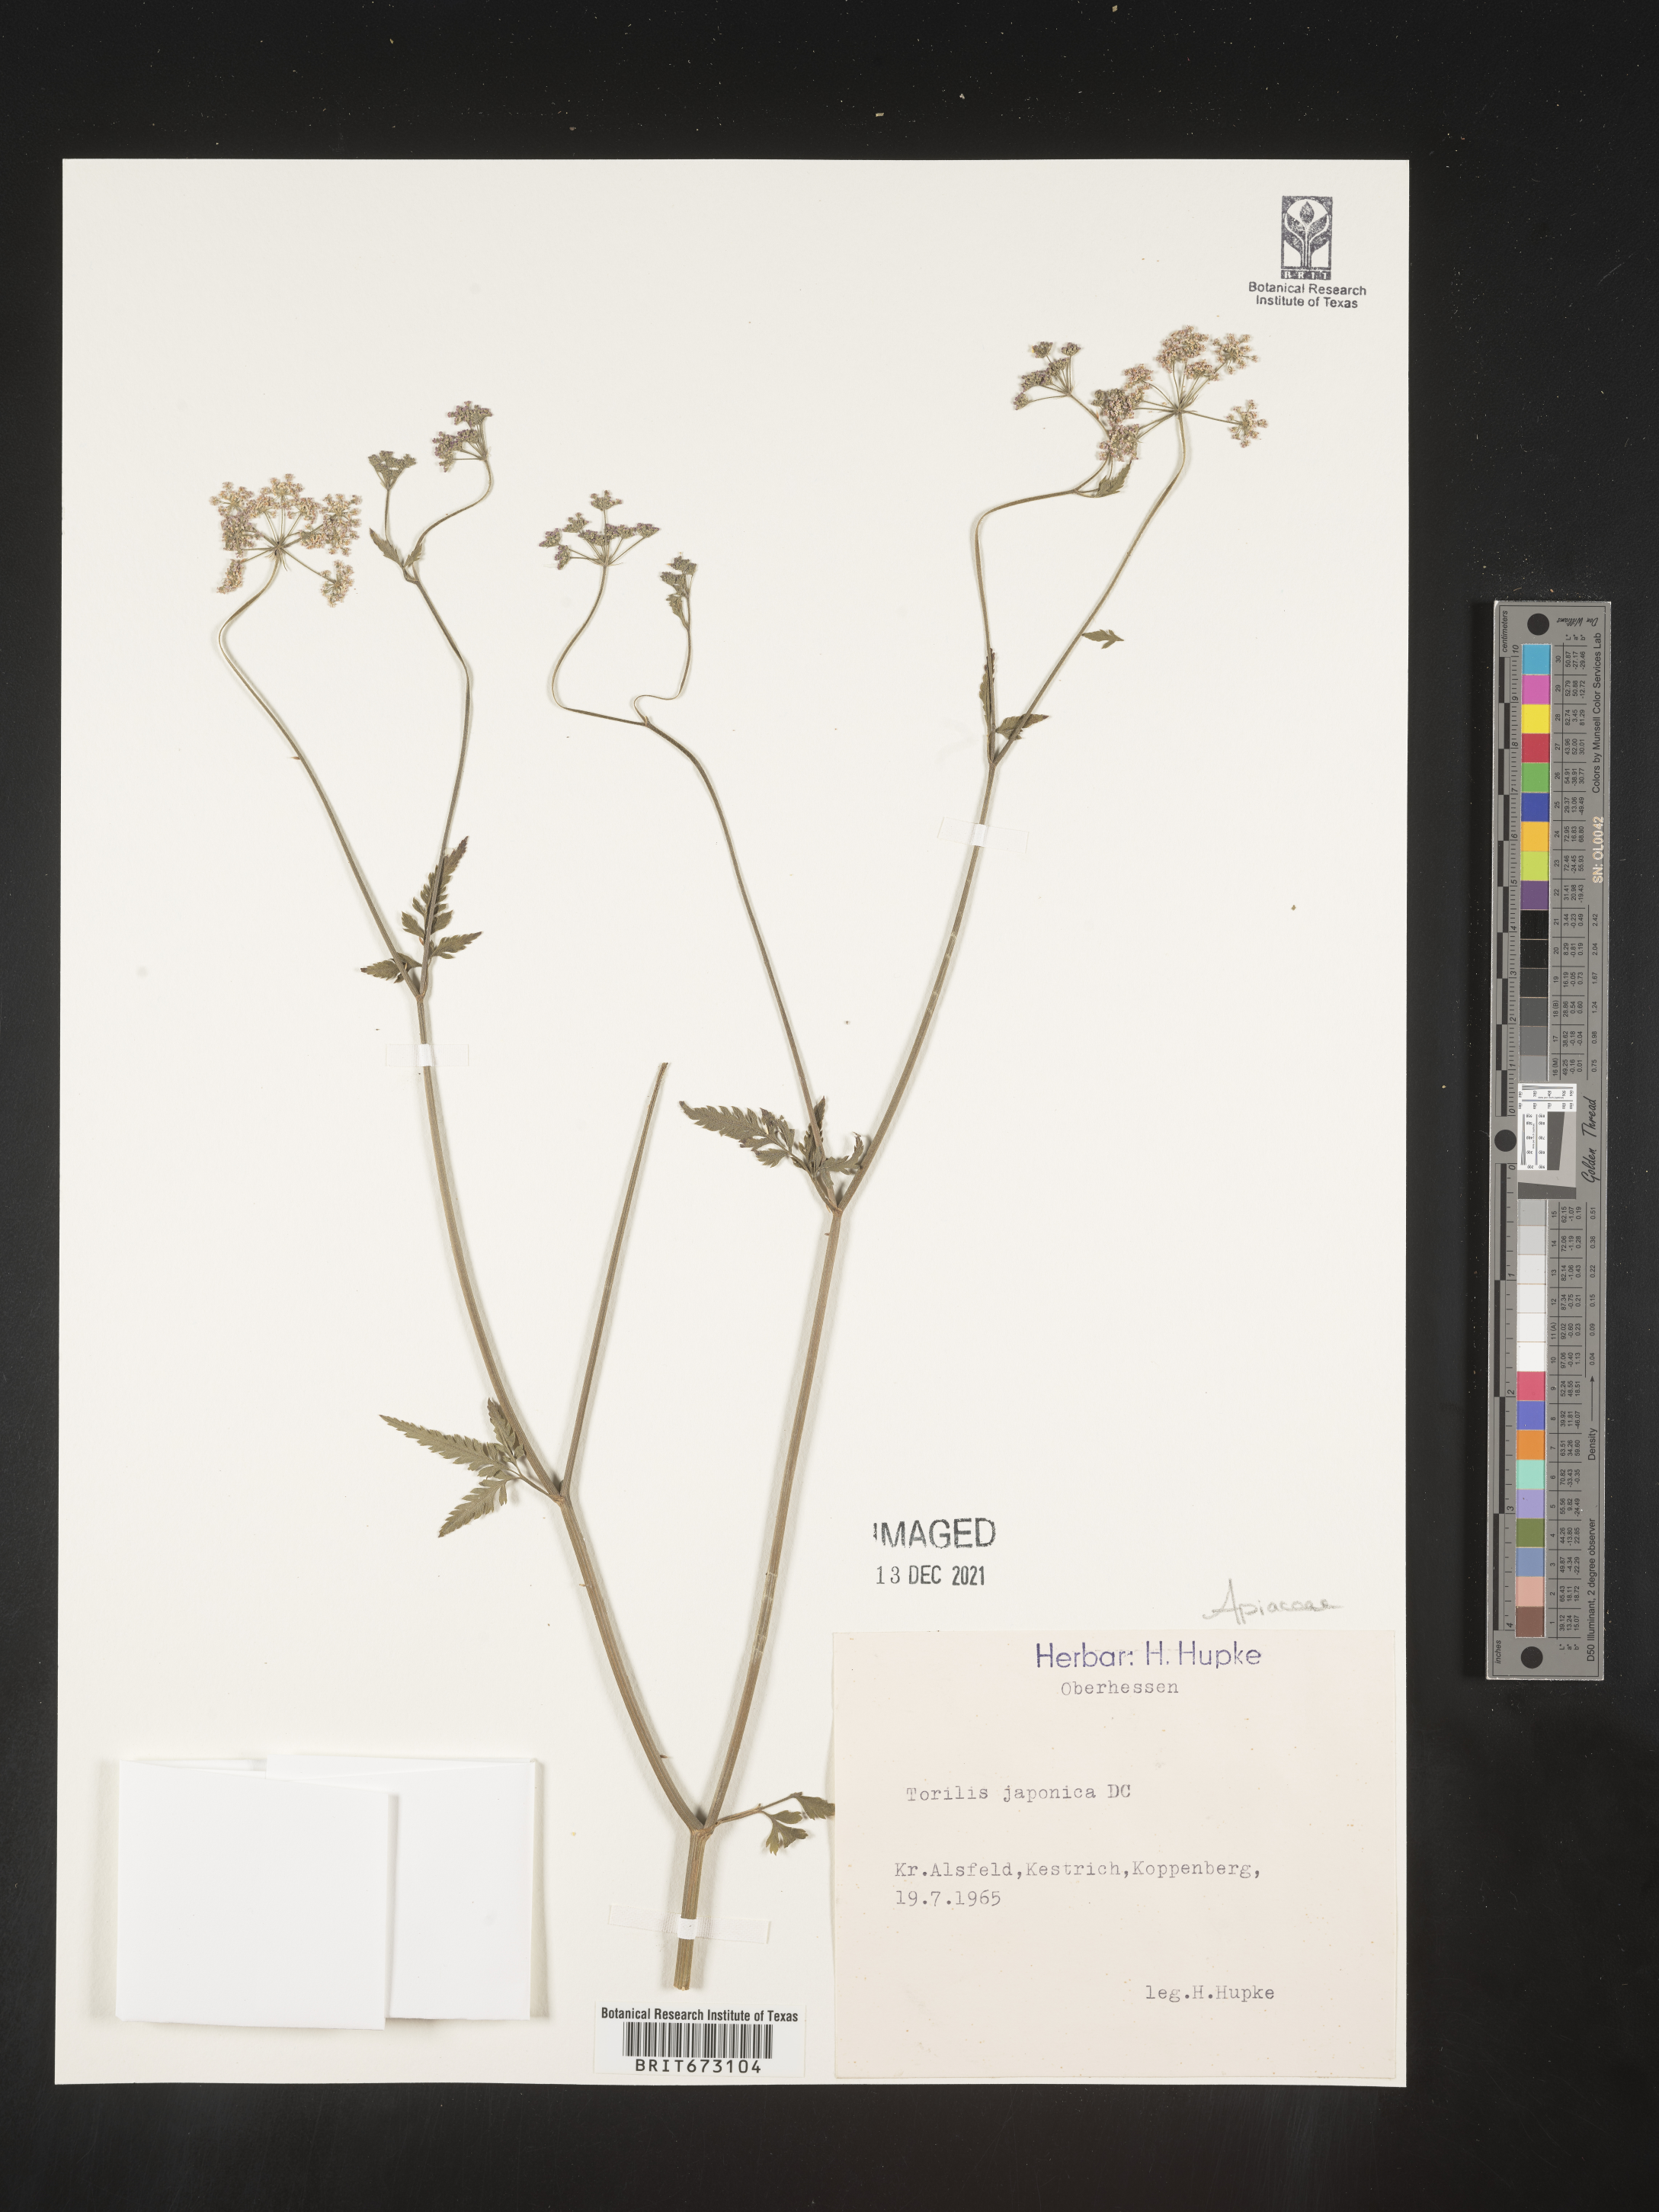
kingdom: Plantae
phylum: Tracheophyta
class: Magnoliopsida
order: Apiales
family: Apiaceae
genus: Torilis
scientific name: Torilis
